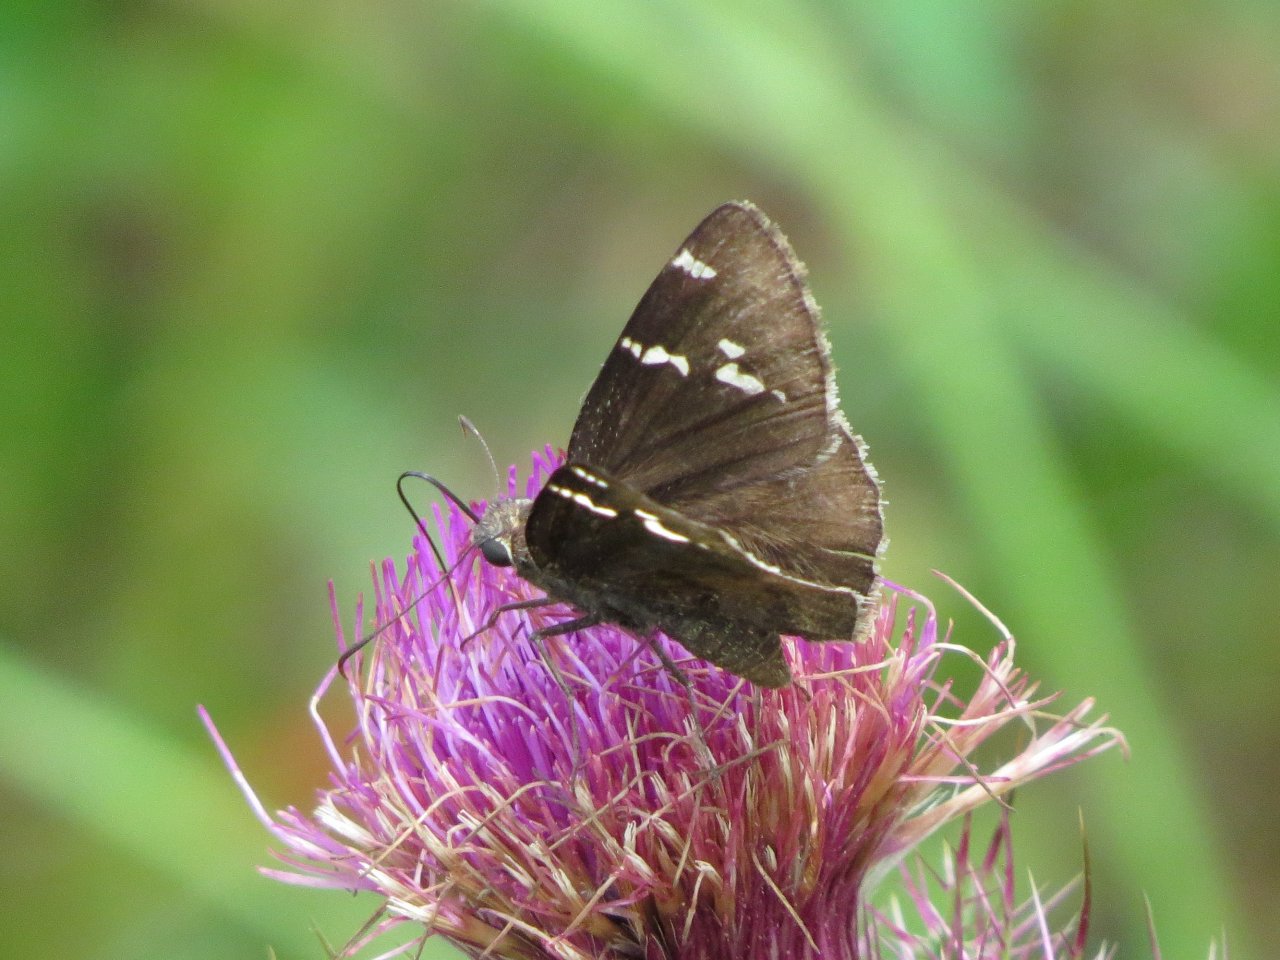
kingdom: Animalia
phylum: Arthropoda
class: Insecta
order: Lepidoptera
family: Hesperiidae
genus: Autochton
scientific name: Autochton
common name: Southern Cloudywing
